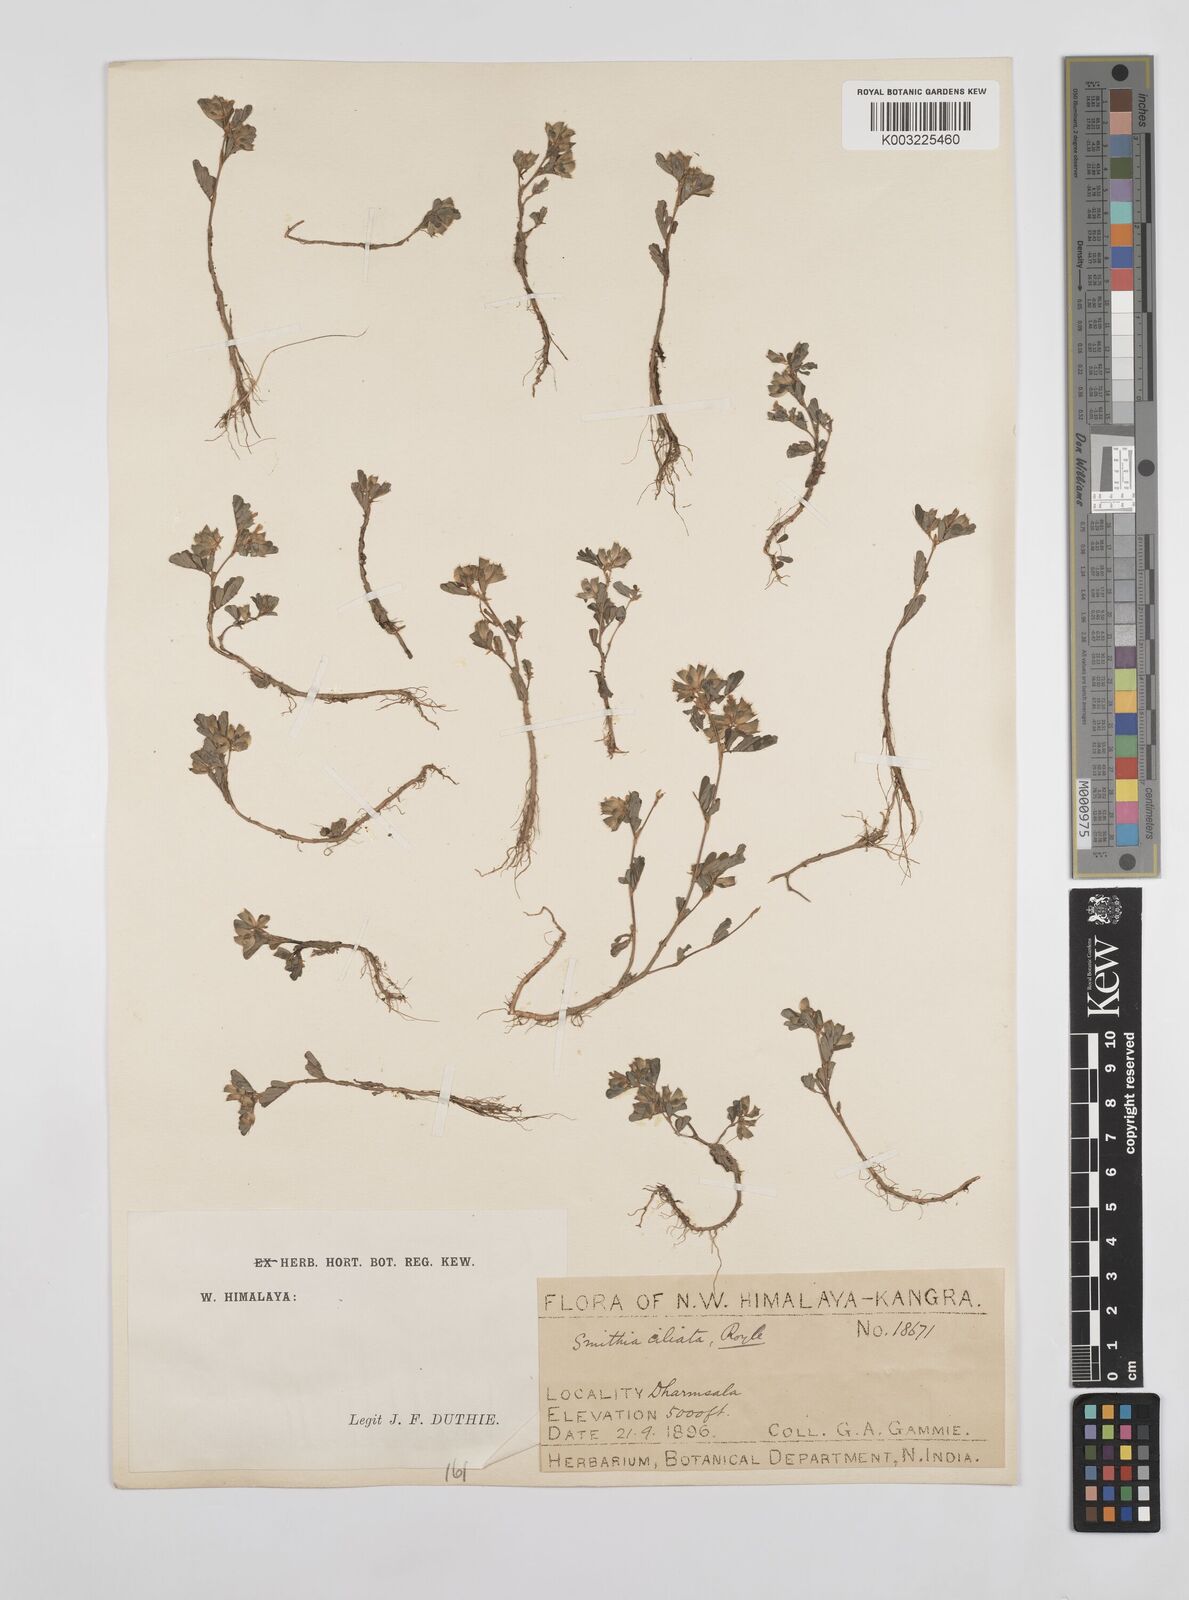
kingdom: Plantae
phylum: Tracheophyta
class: Magnoliopsida
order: Fabales
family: Fabaceae
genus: Smithia
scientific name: Smithia ciliata
